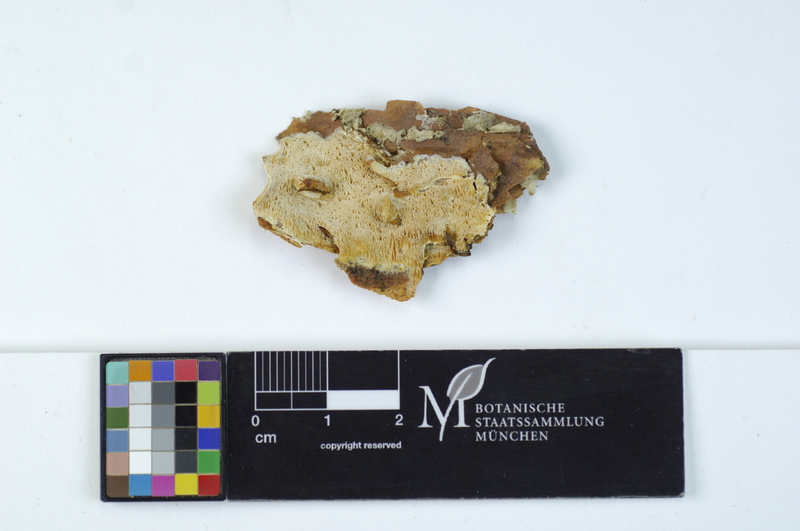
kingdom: Fungi
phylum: Basidiomycota
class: Agaricomycetes
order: Polyporales
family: Incrustoporiaceae
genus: Skeletocutis
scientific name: Skeletocutis kuehneri
